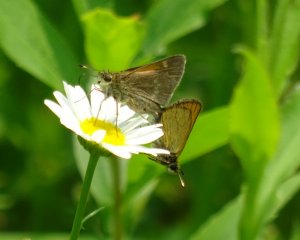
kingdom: Animalia
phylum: Arthropoda
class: Insecta
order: Lepidoptera
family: Hesperiidae
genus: Polites
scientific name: Polites
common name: Crossline Skipper
